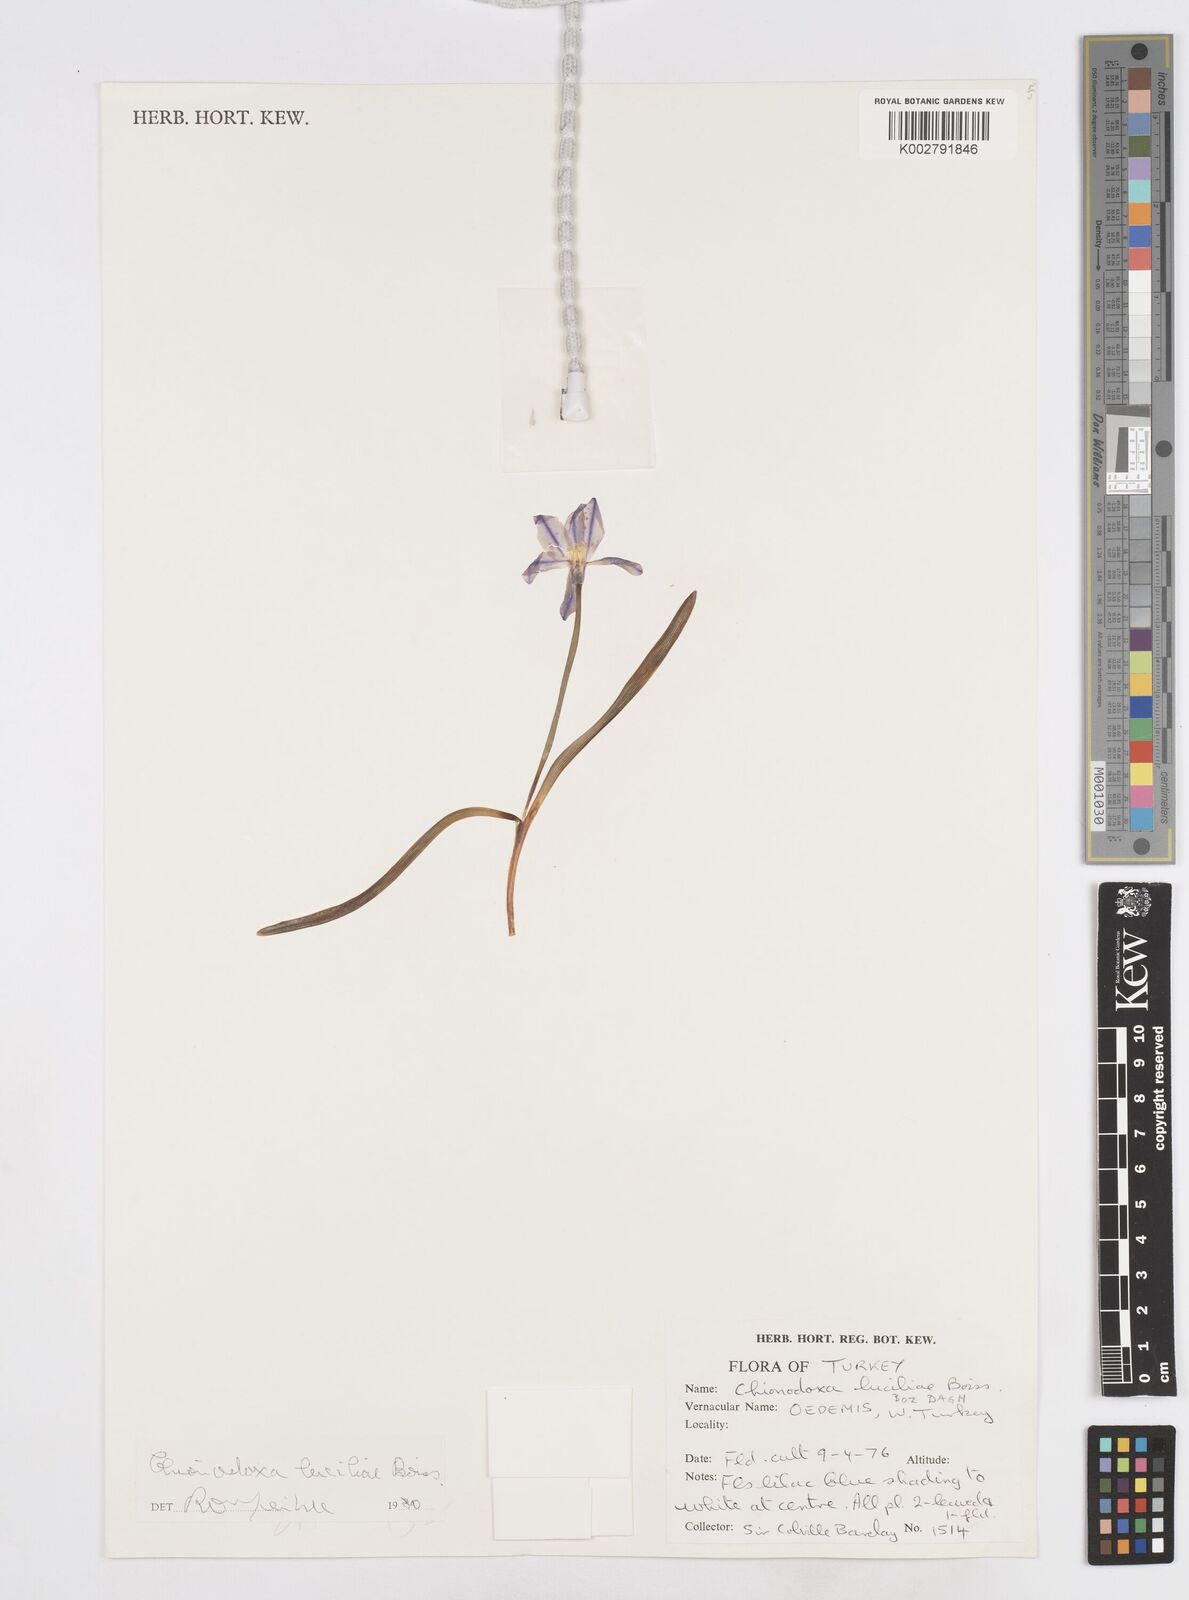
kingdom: Plantae
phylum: Tracheophyta
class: Liliopsida
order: Asparagales
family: Asparagaceae
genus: Scilla
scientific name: Scilla luciliae
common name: Boissier's glory-of-the-snow
